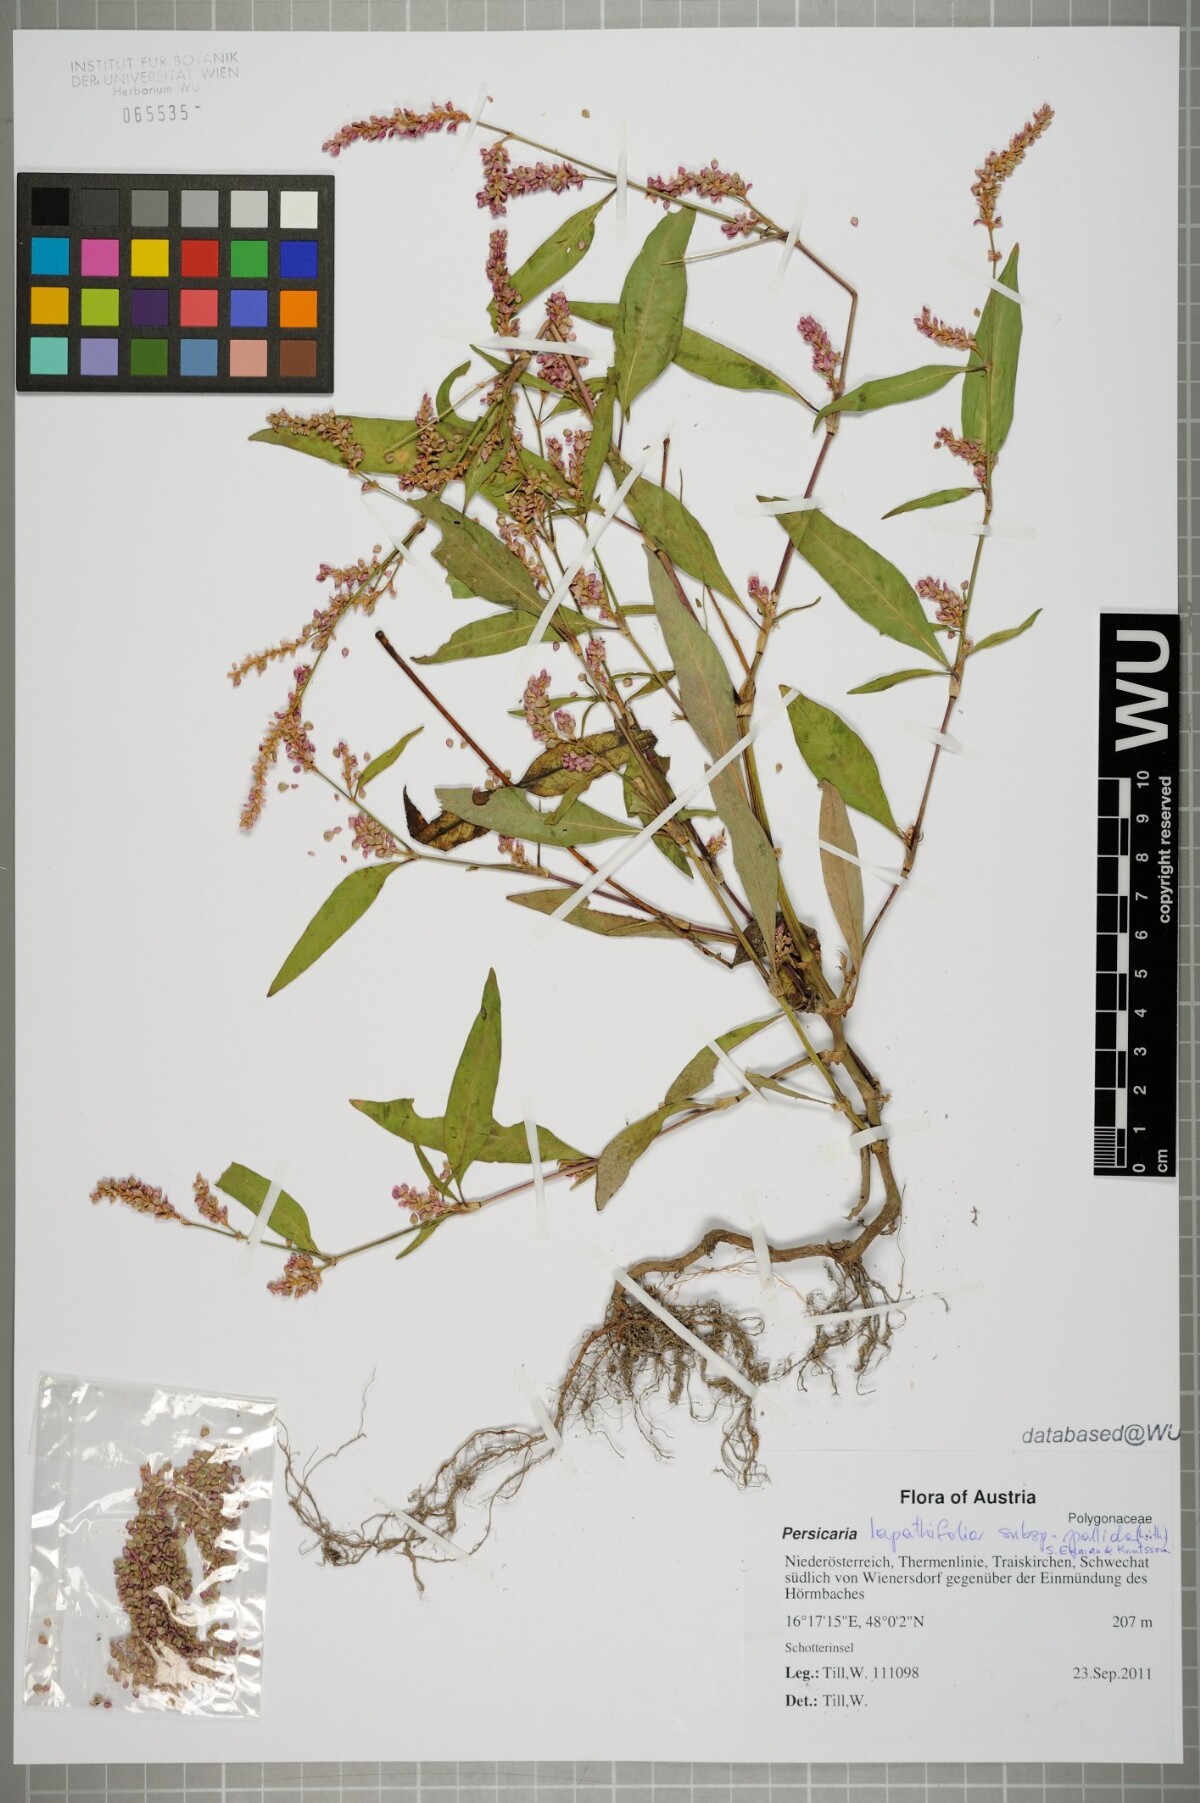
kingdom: Plantae
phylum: Tracheophyta
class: Magnoliopsida
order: Caryophyllales
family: Polygonaceae
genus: Persicaria
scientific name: Persicaria lapathifolia
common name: Curlytop knotweed
